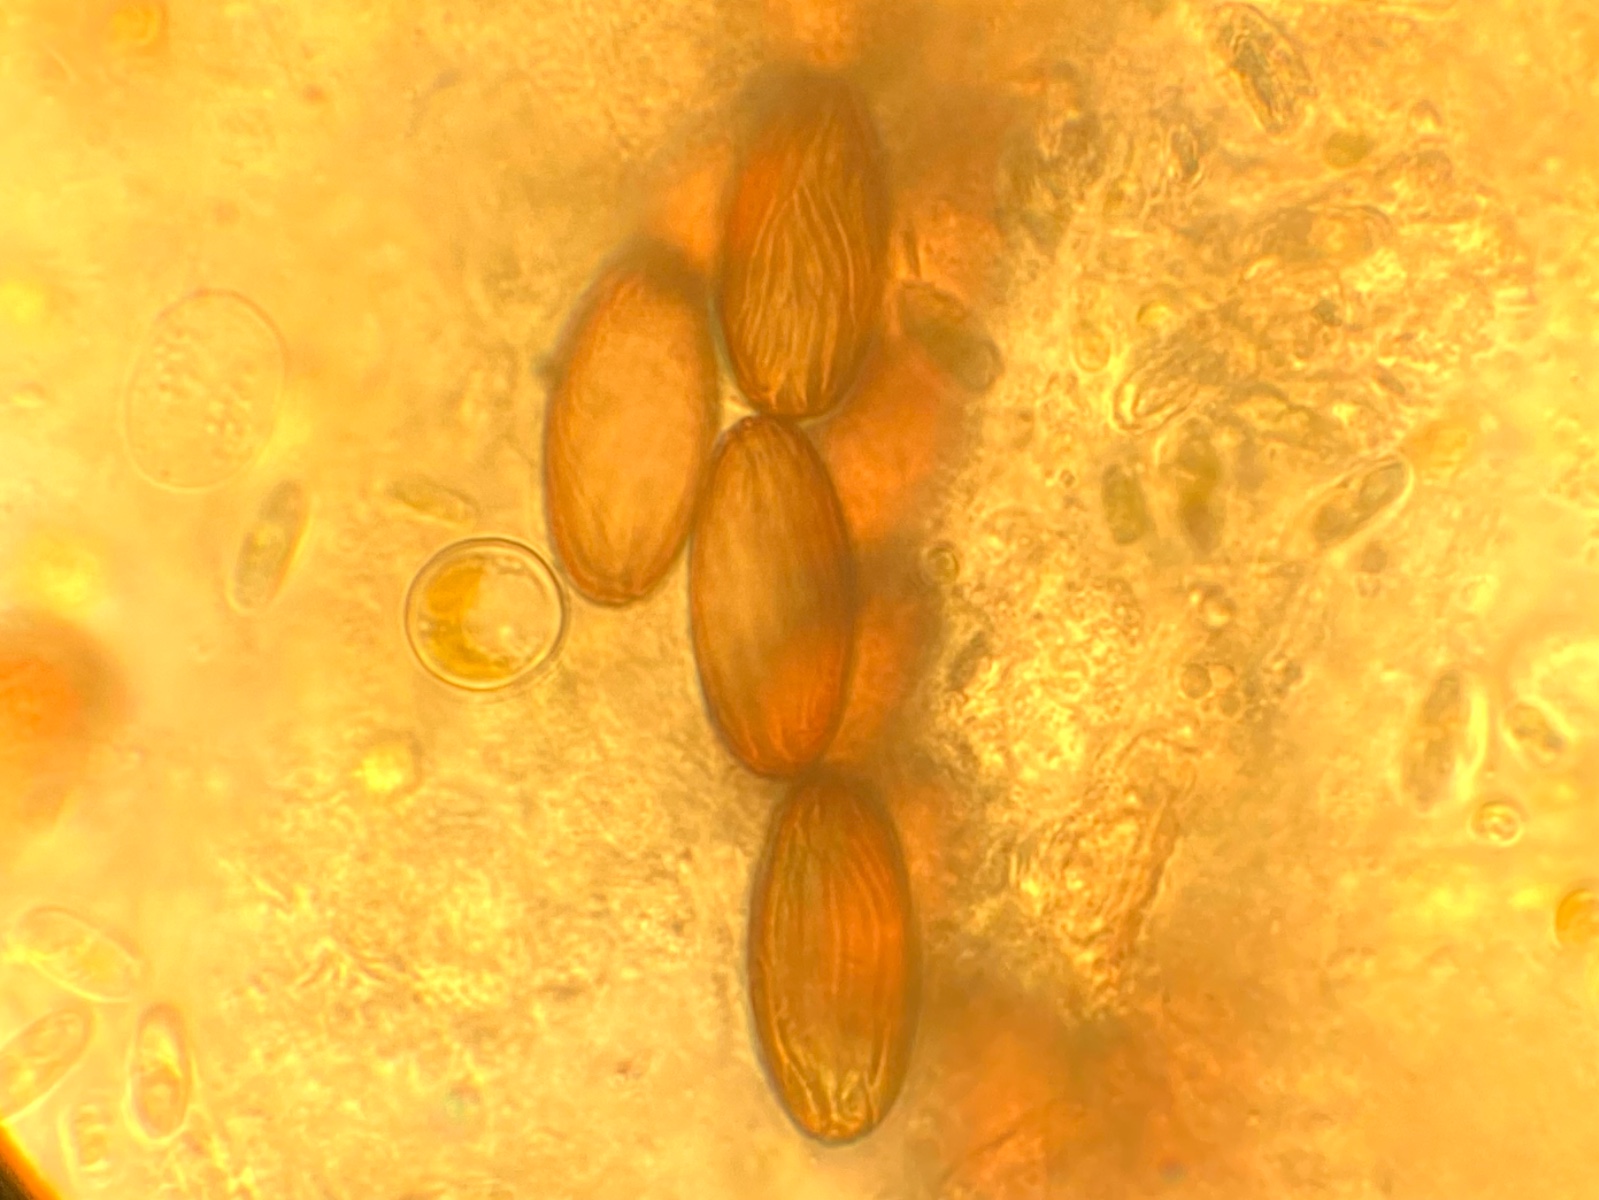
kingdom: Fungi
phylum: Ascomycota
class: Pezizomycetes
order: Pezizales
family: Ascobolaceae
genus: Ascobolus
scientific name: Ascobolus
